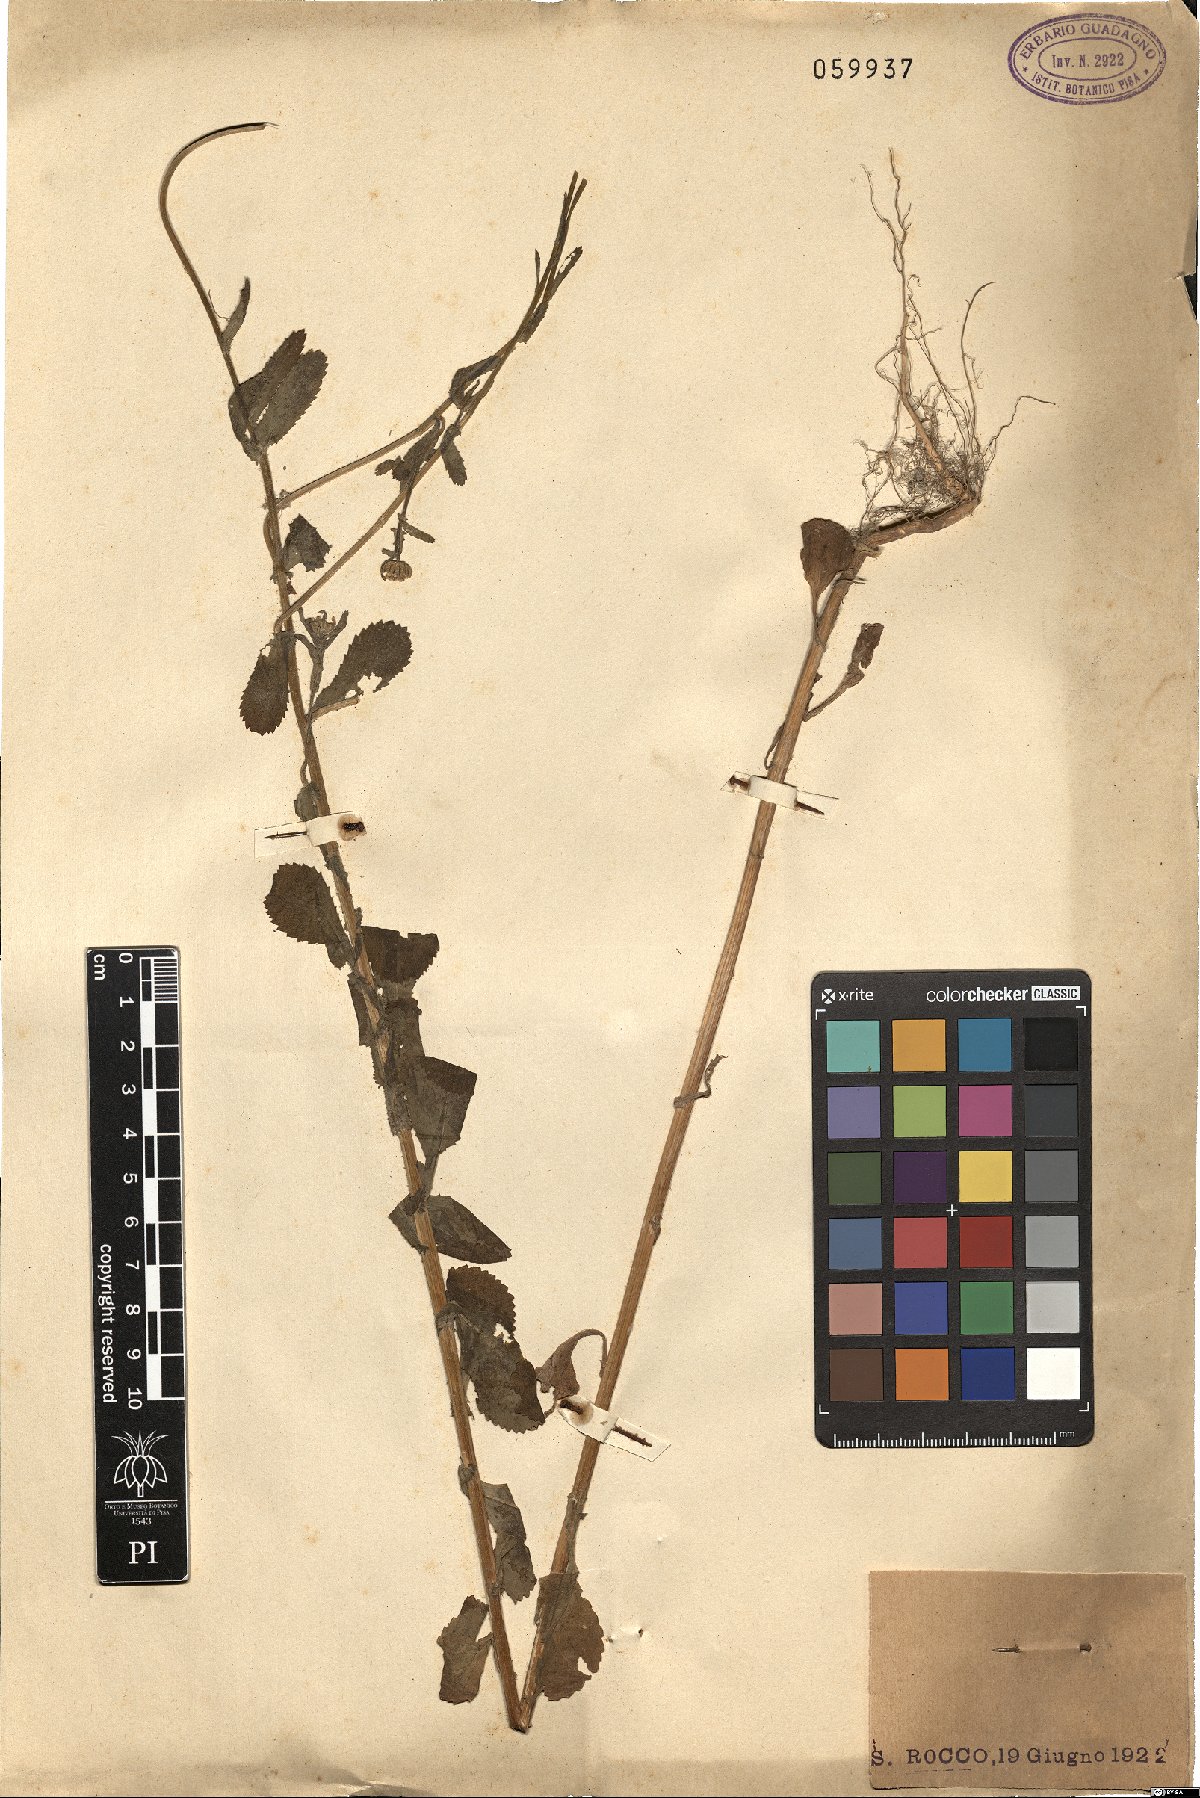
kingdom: Plantae
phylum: Tracheophyta
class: Magnoliopsida
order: Asterales
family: Asteraceae
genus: Coleostephus
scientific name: Coleostephus myconis
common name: Mediterranean marigold
